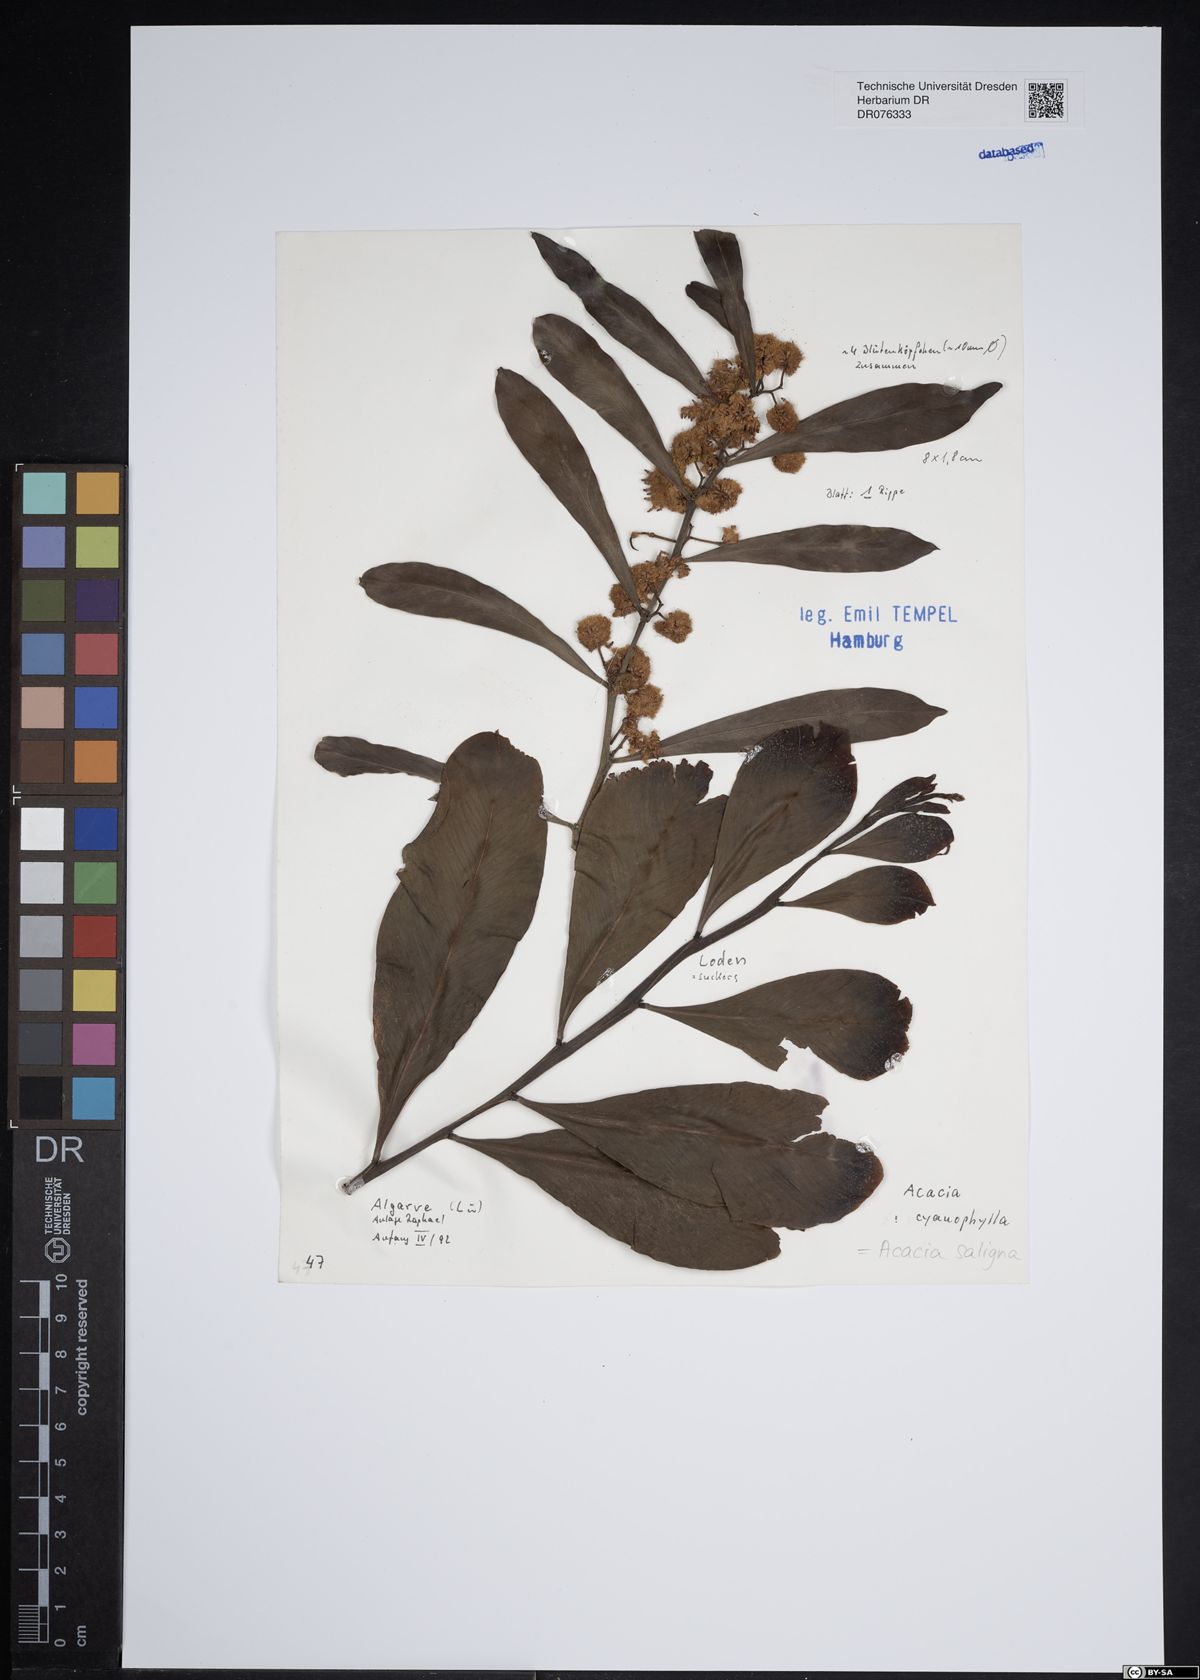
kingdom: Plantae
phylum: Tracheophyta
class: Magnoliopsida
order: Fabales
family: Fabaceae
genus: Acacia
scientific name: Acacia saligna
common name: Orange wattle
